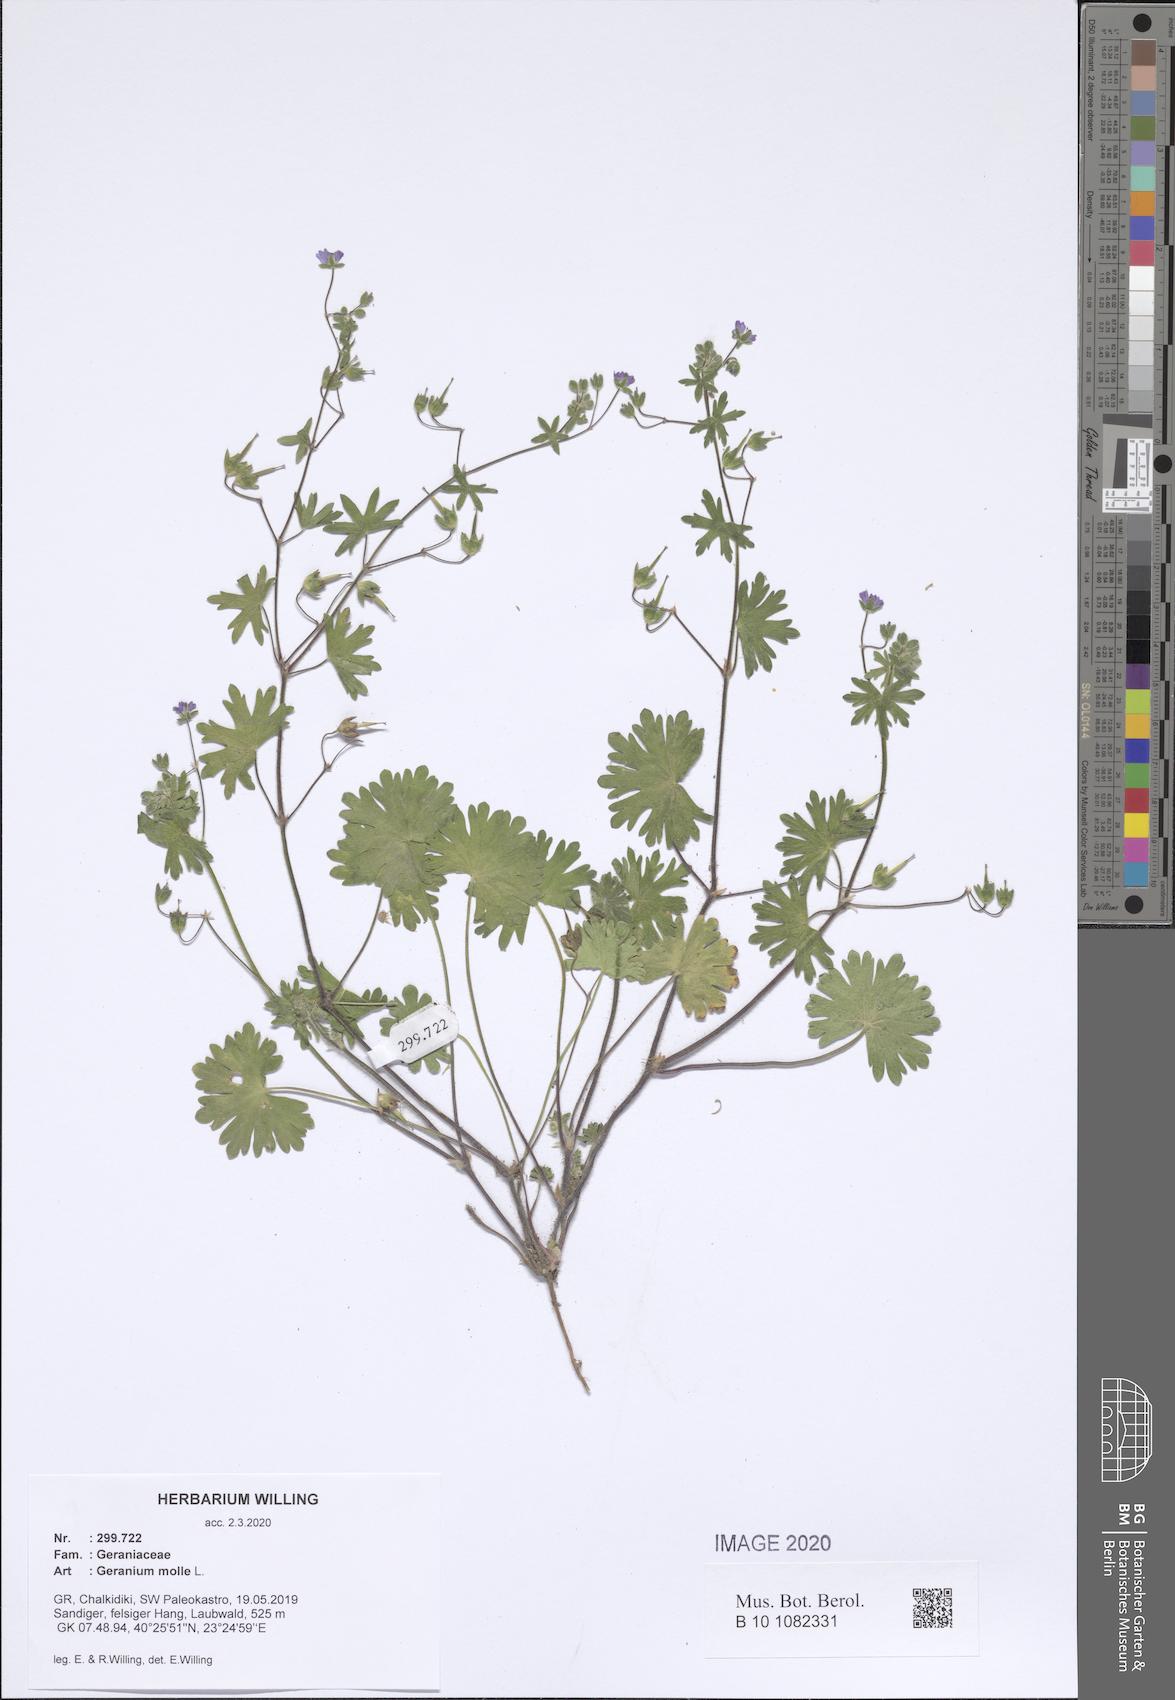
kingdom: Plantae
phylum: Tracheophyta
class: Magnoliopsida
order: Geraniales
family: Geraniaceae
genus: Geranium
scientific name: Geranium molle
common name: Dove's-foot crane's-bill
